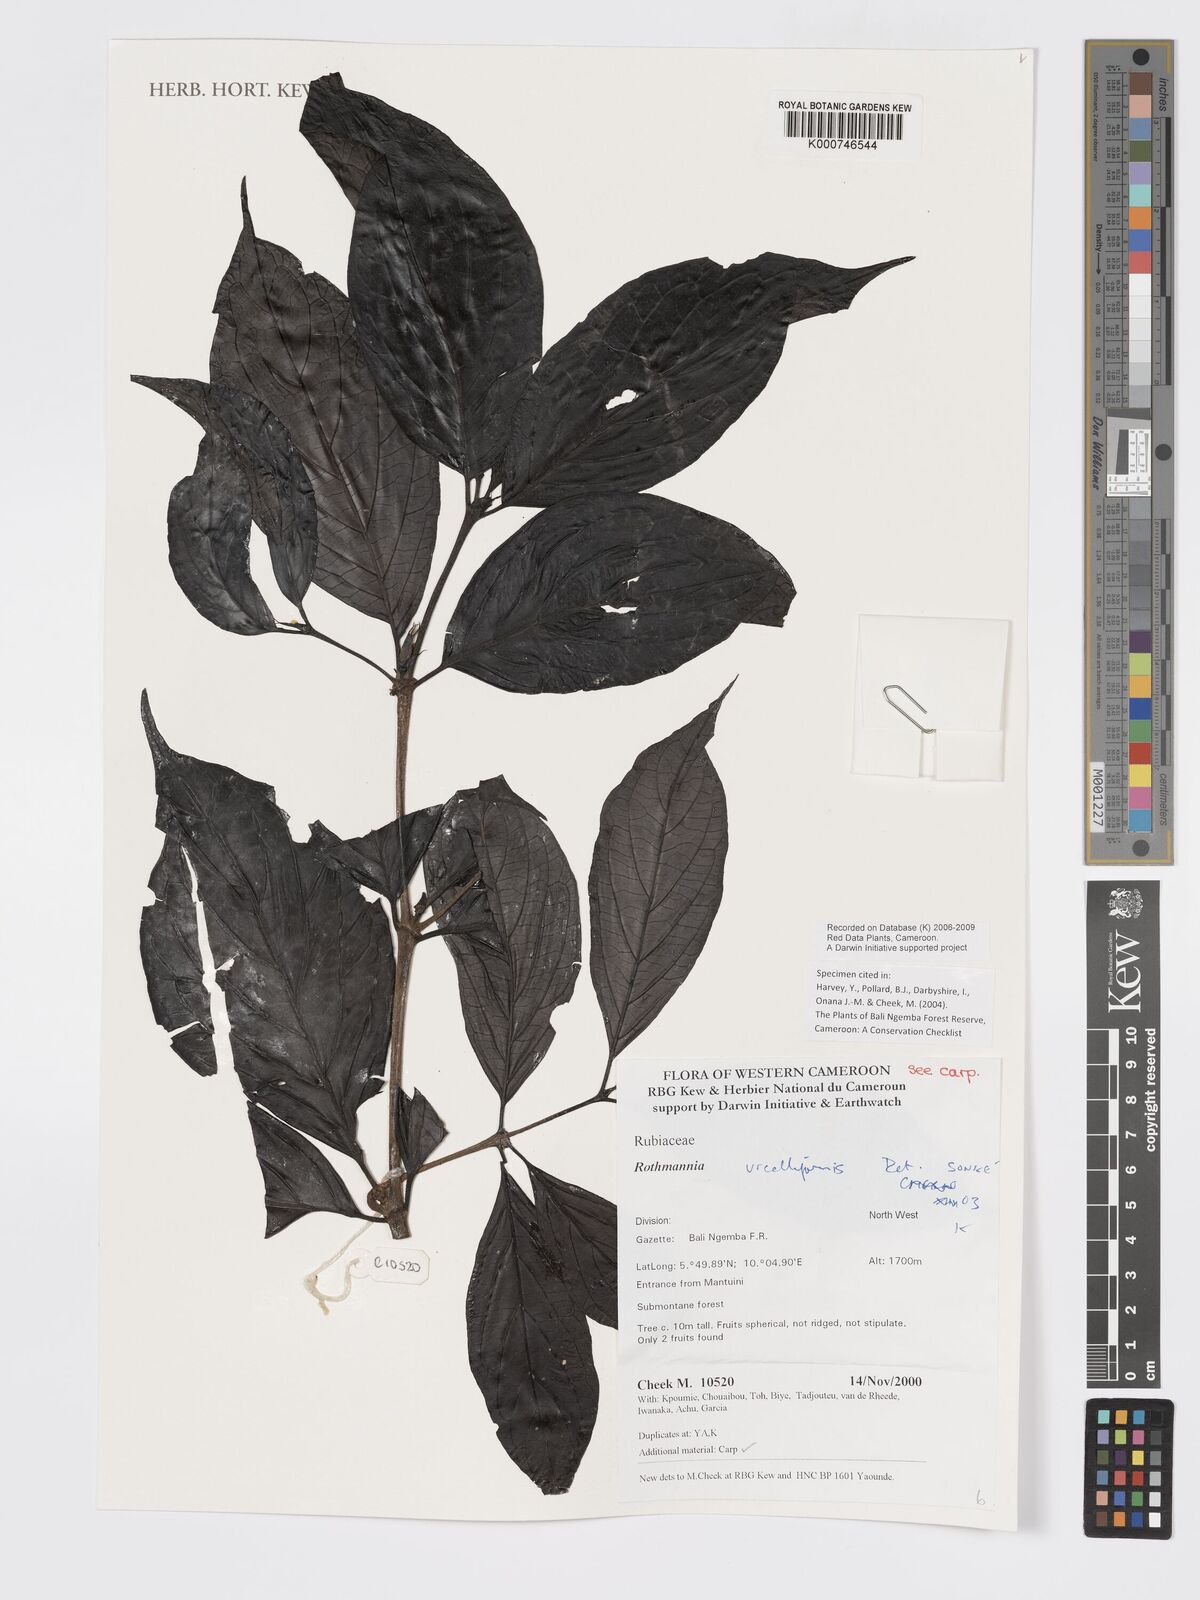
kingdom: Plantae
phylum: Tracheophyta
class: Magnoliopsida
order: Gentianales
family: Rubiaceae
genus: Rothmannia
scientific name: Rothmannia urcelliformis
